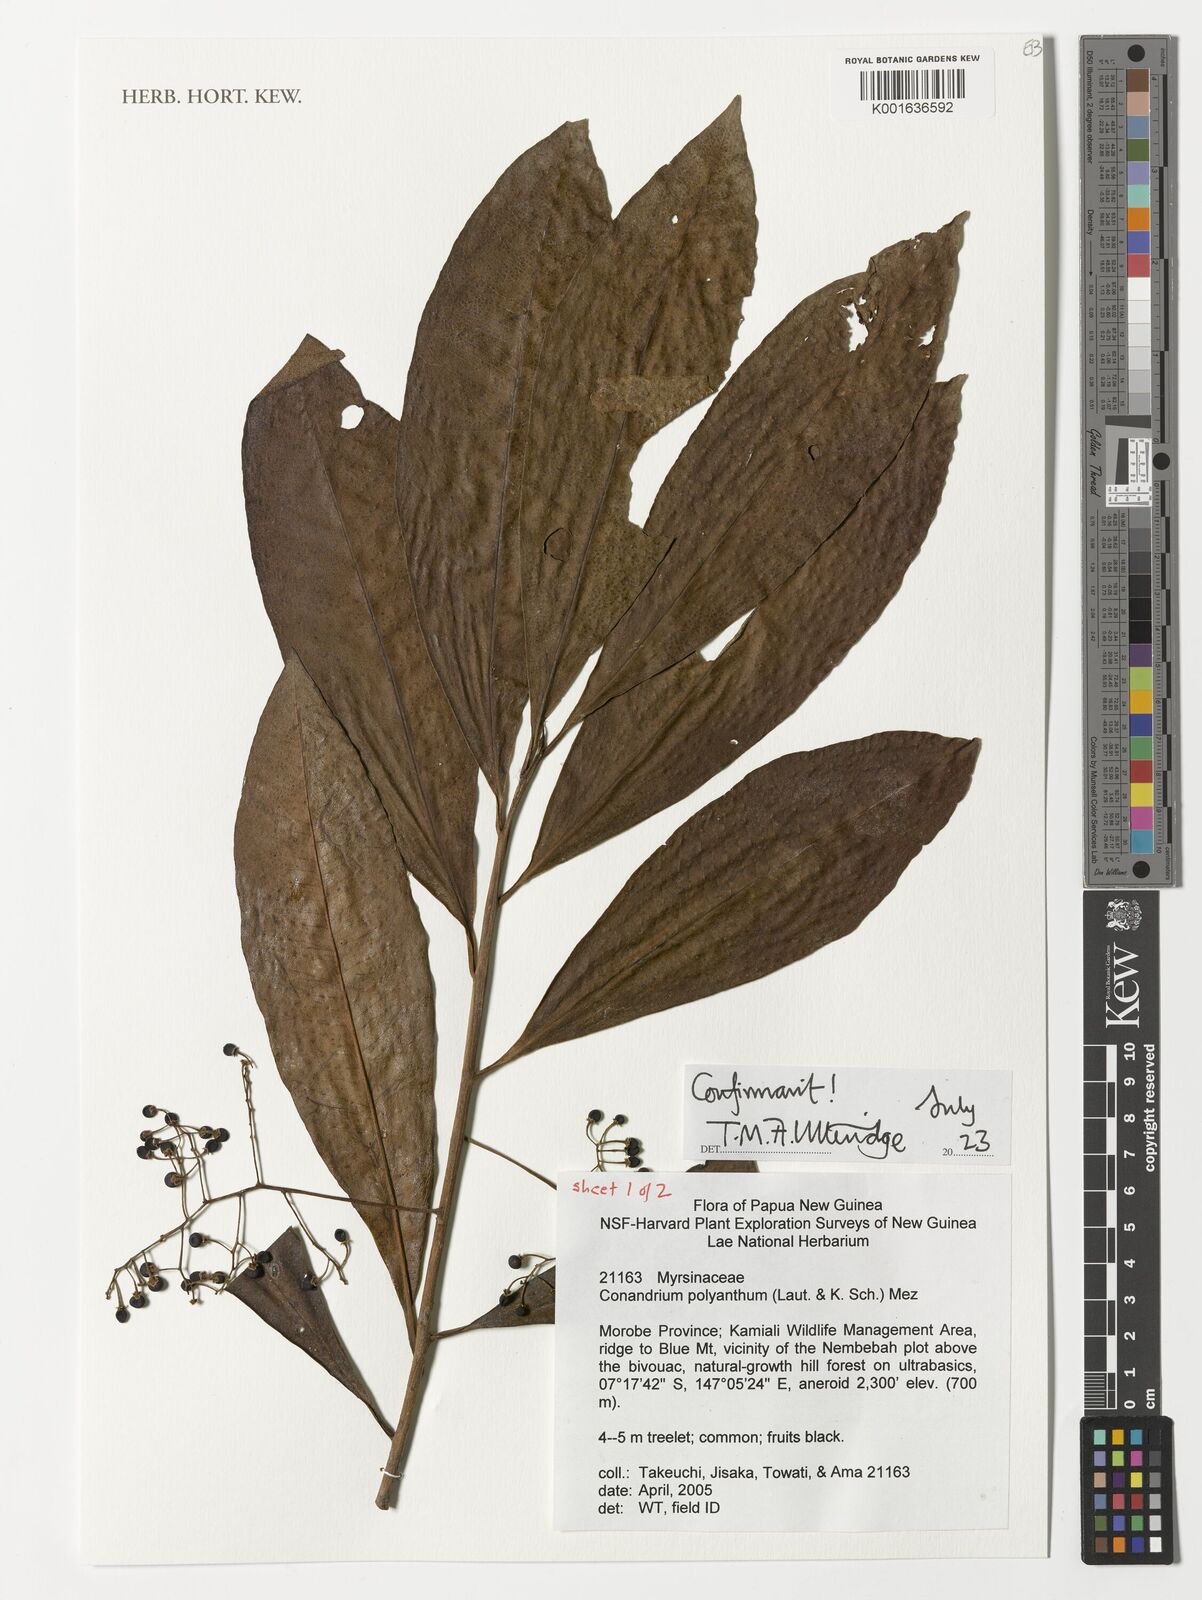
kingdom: Plantae
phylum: Tracheophyta
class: Magnoliopsida
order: Ericales
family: Primulaceae
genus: Conandrium
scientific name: Conandrium polyanthum
